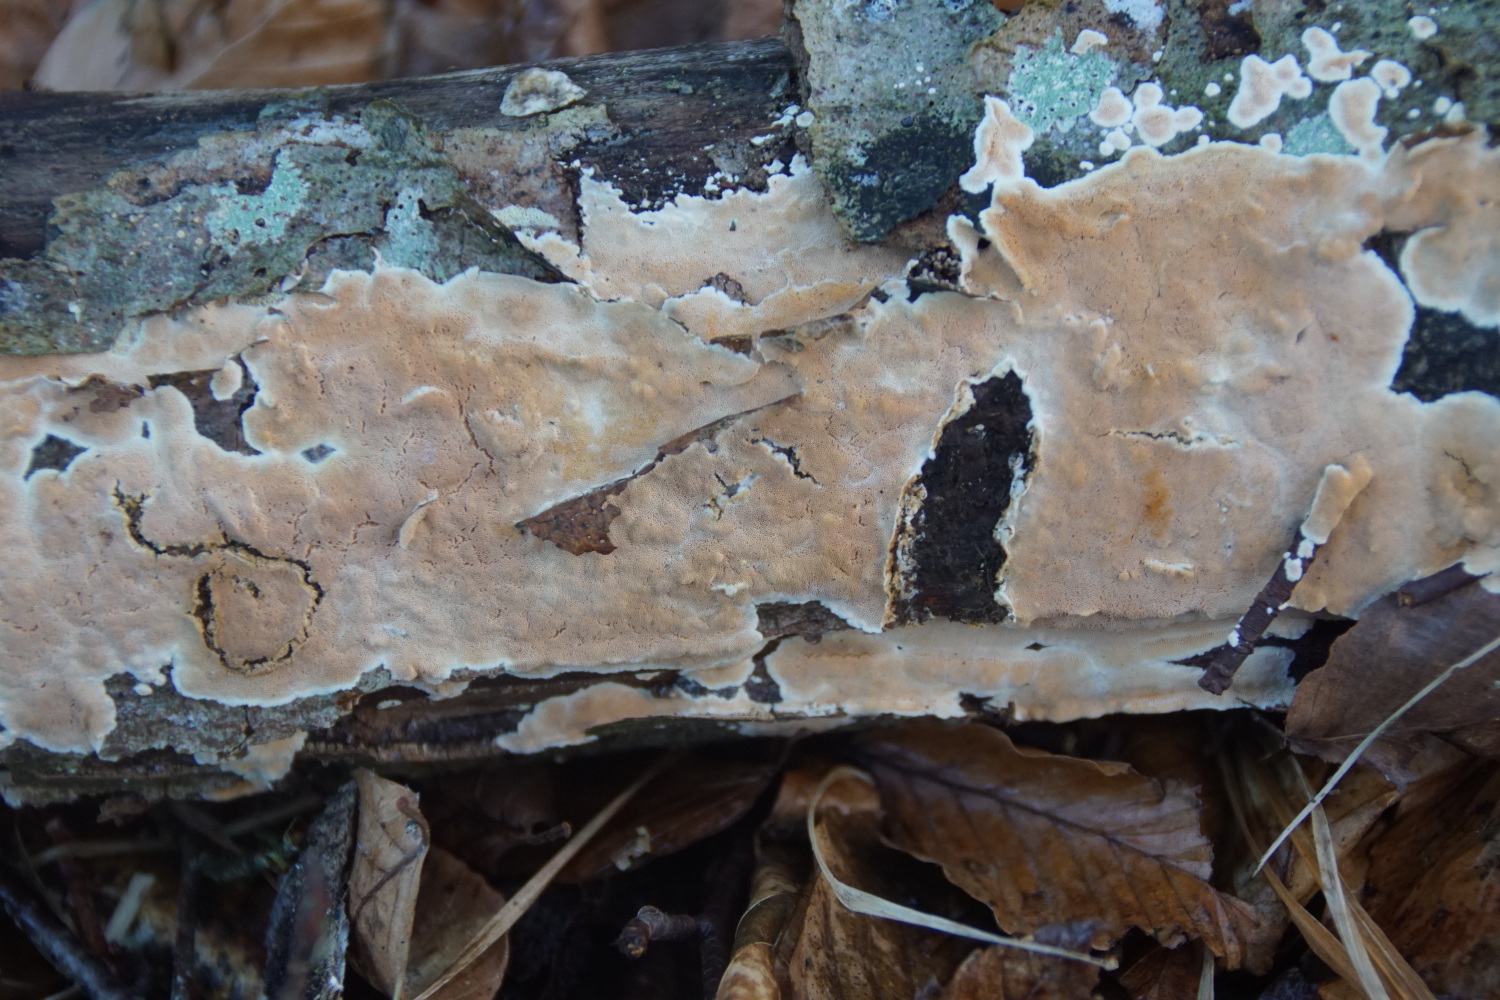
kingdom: Fungi
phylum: Basidiomycota
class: Agaricomycetes
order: Polyporales
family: Steccherinaceae
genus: Junghuhnia
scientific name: Junghuhnia nitida
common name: almindelig skønporesvamp
